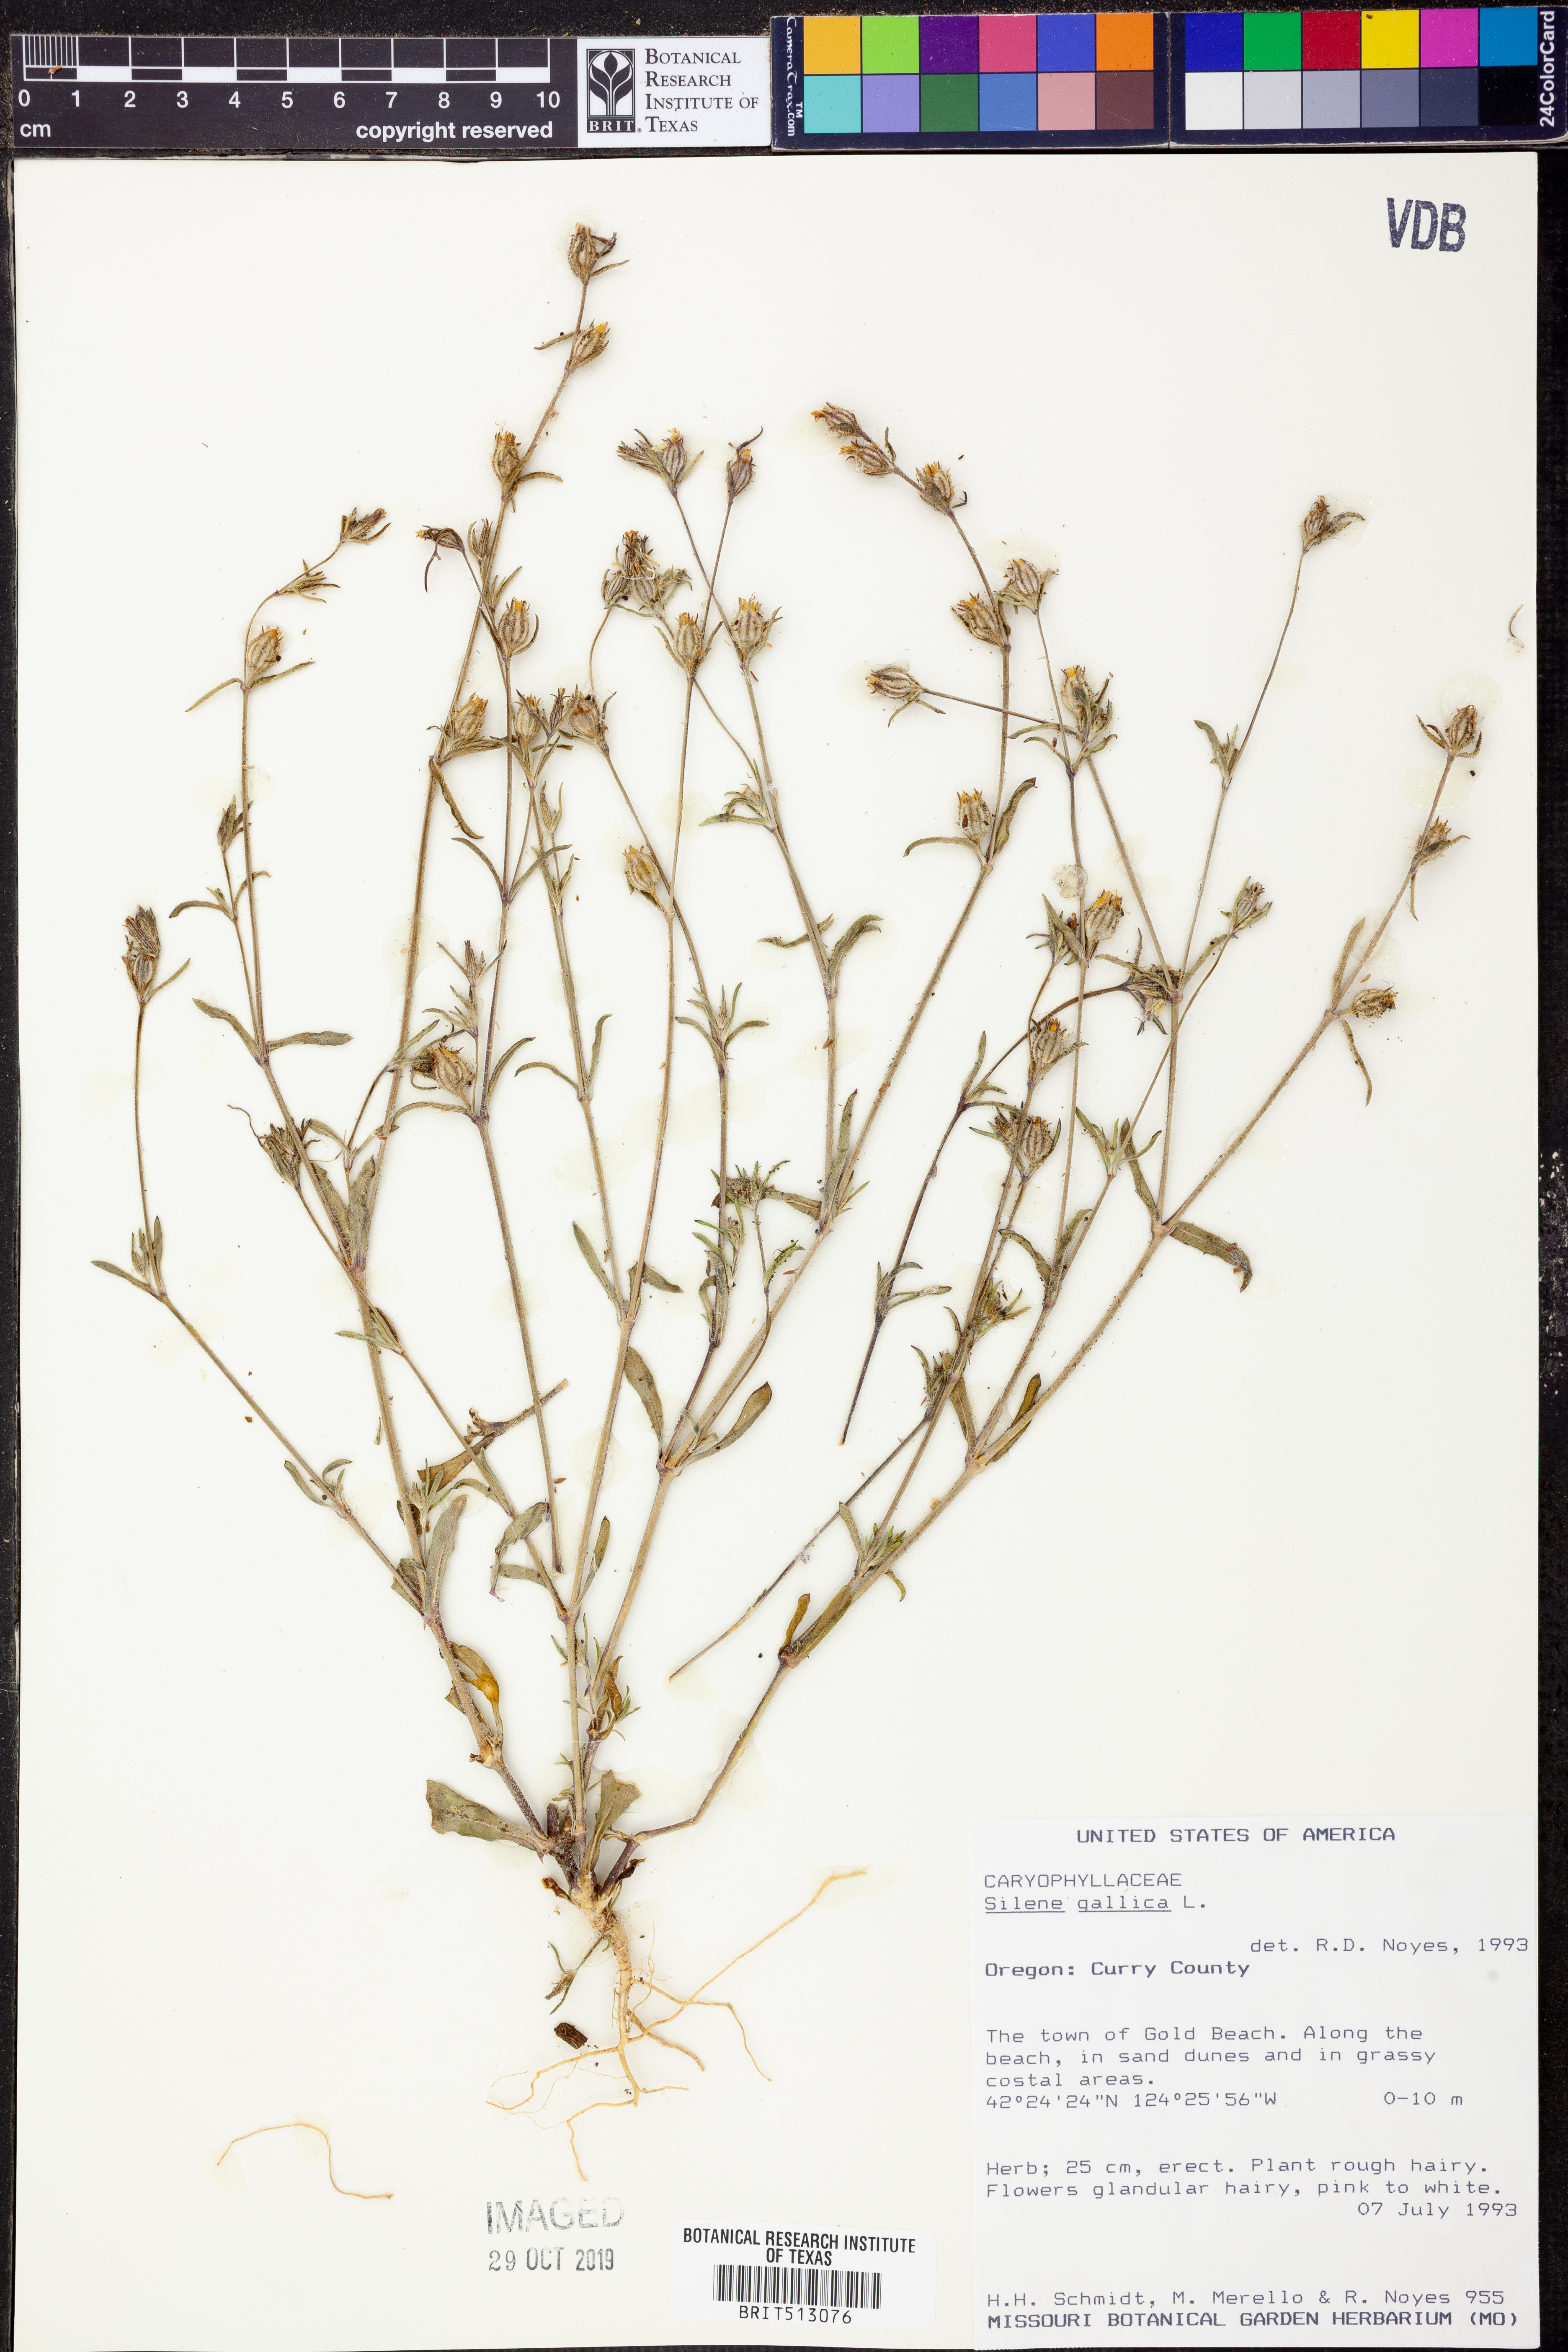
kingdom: Plantae
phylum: Tracheophyta
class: Magnoliopsida
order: Caryophyllales
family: Caryophyllaceae
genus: Silene
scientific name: Silene gallica
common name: Small-flowered catchfly
